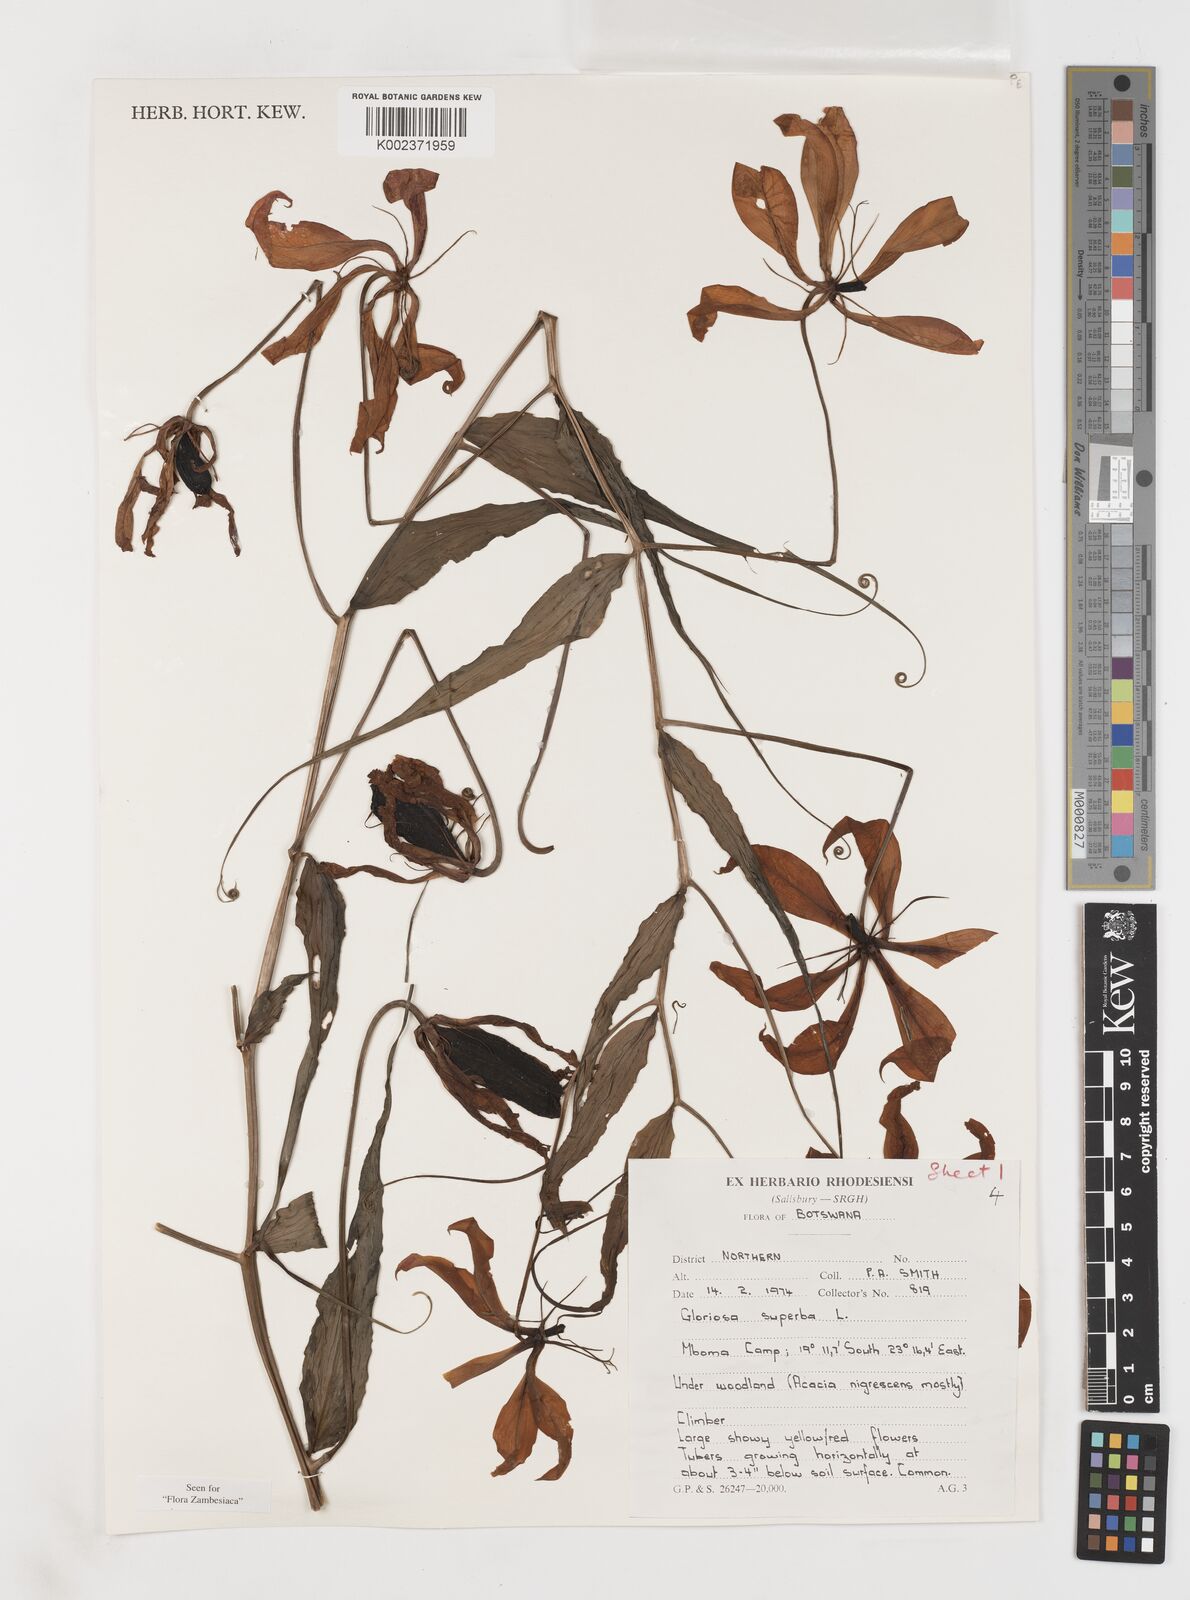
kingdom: Plantae
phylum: Tracheophyta
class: Liliopsida
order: Liliales
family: Colchicaceae
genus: Gloriosa
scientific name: Gloriosa simplex
